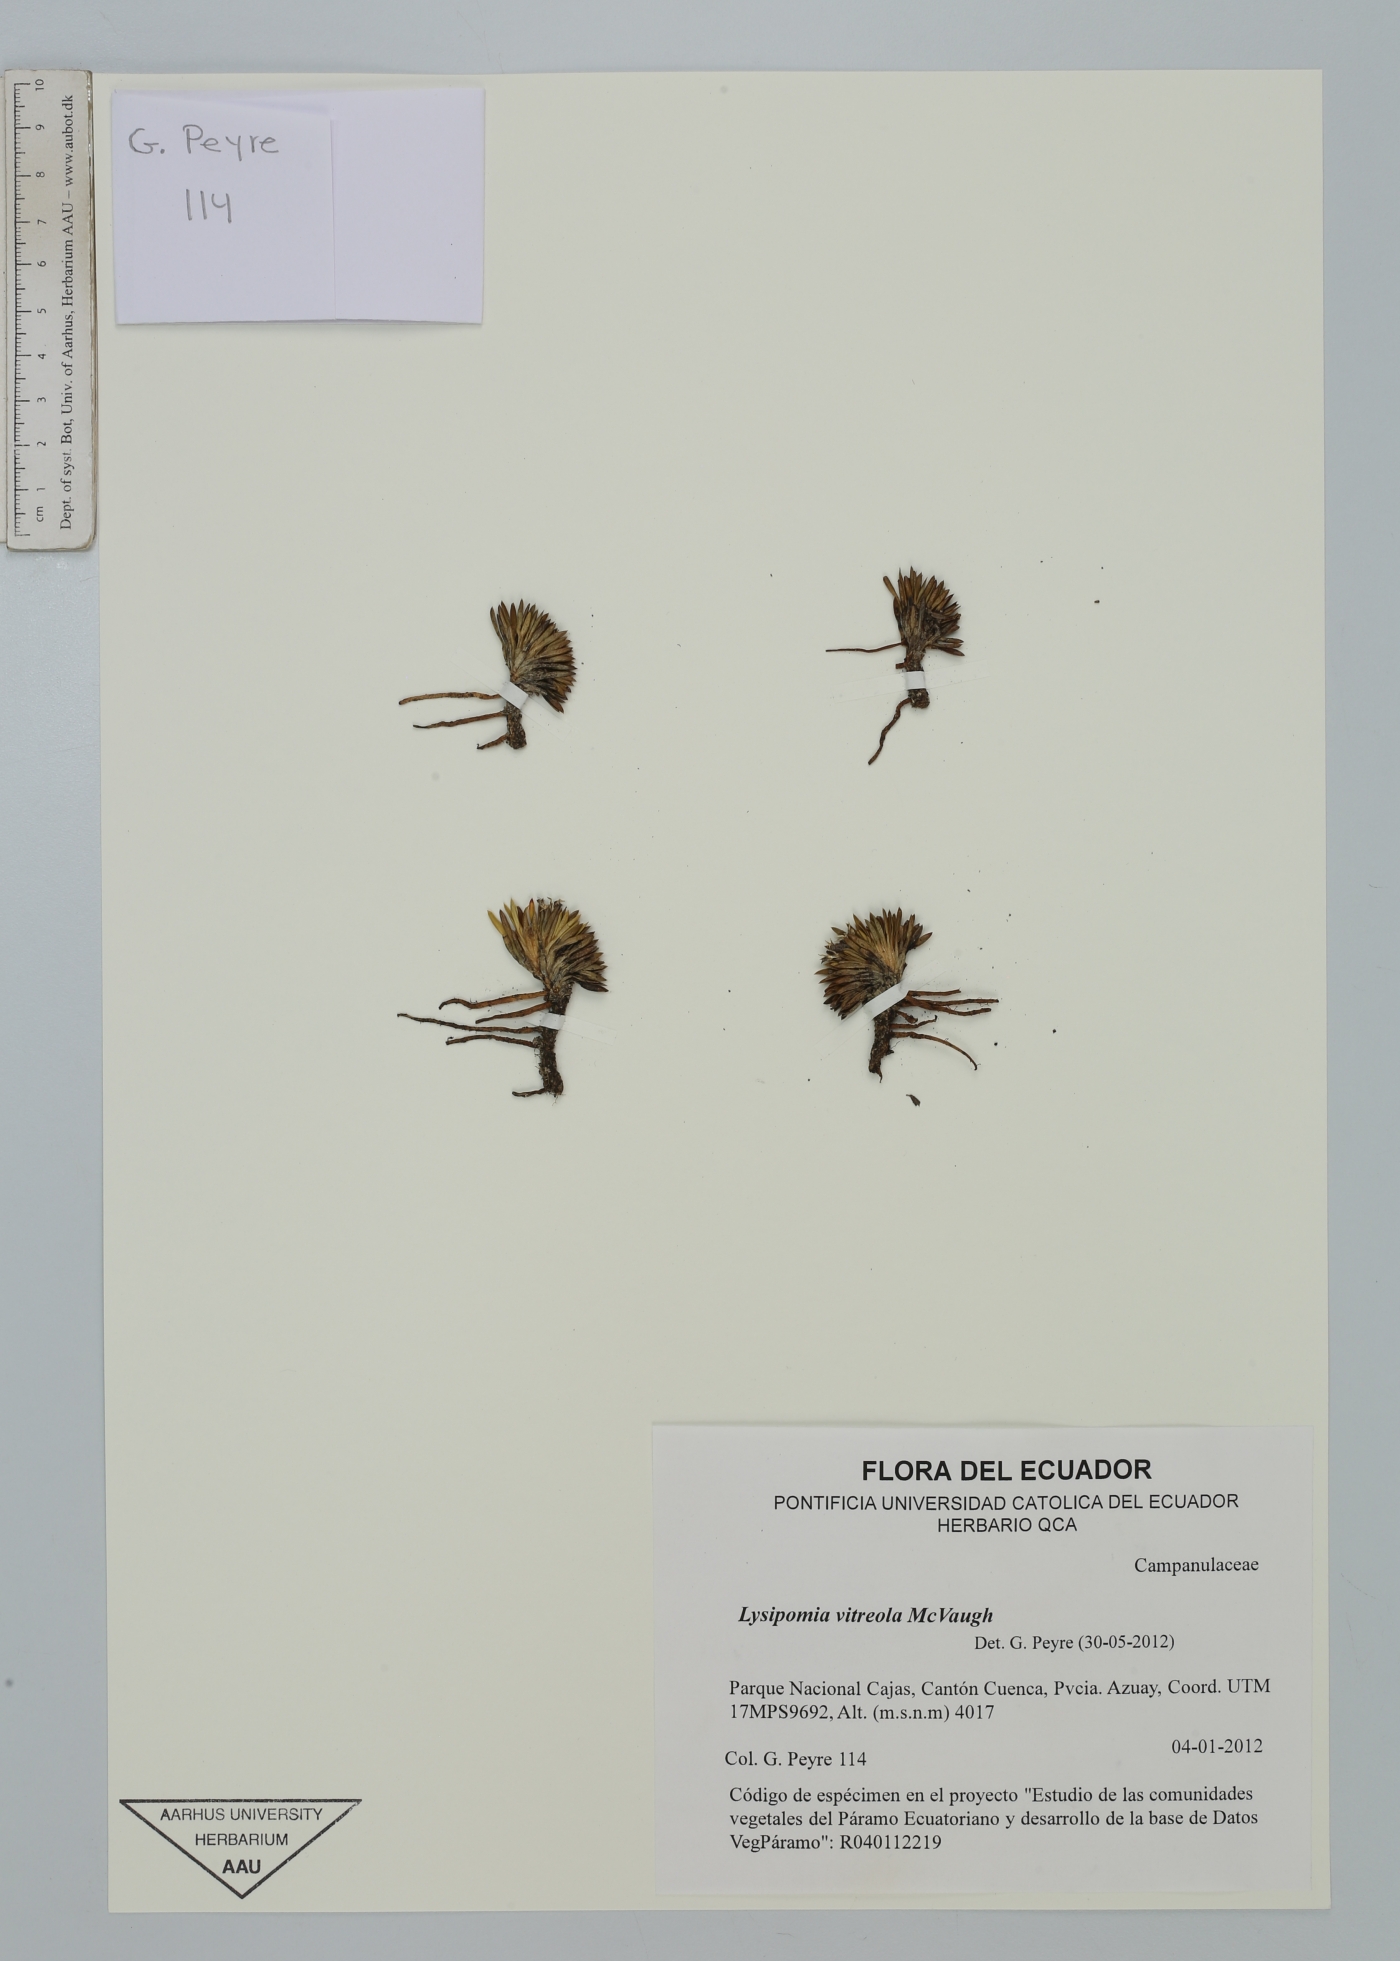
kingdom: Plantae
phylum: Tracheophyta
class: Magnoliopsida
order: Asterales
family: Campanulaceae
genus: Lysipomia
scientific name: Lysipomia vitreola
